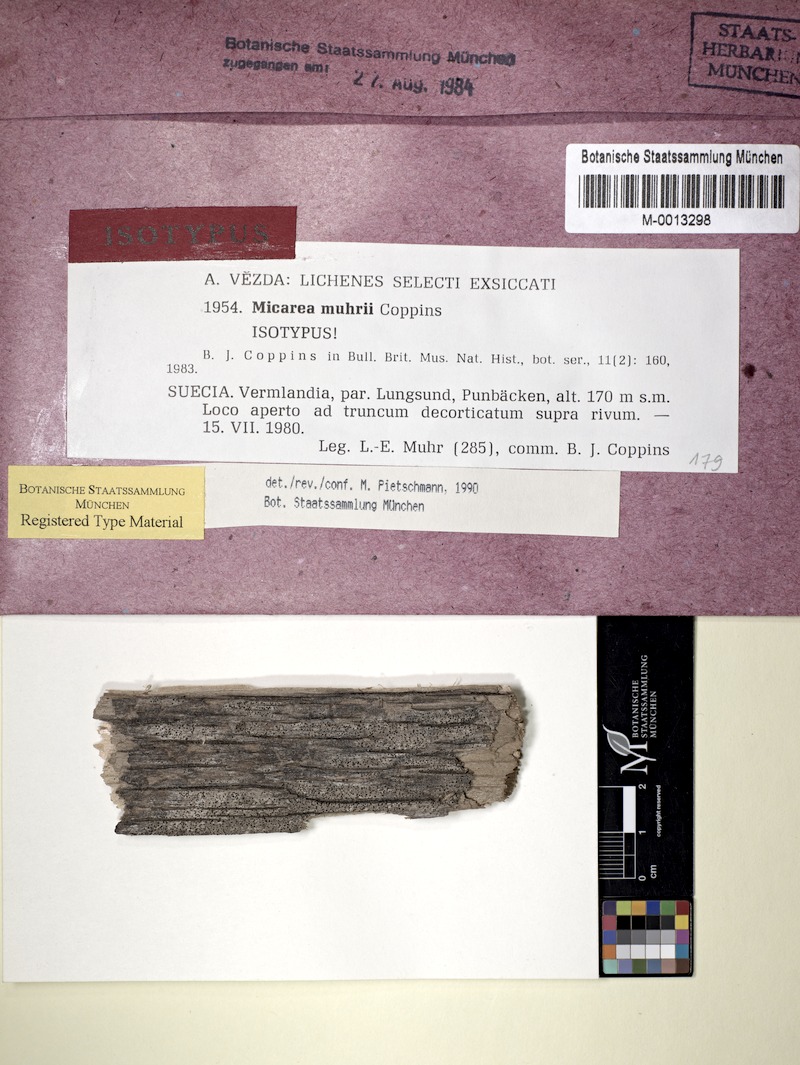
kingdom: Fungi
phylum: Ascomycota
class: Lecanoromycetes
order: Lecanorales
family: Byssolomataceae
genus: Micarea
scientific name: Micarea vulpinaris
